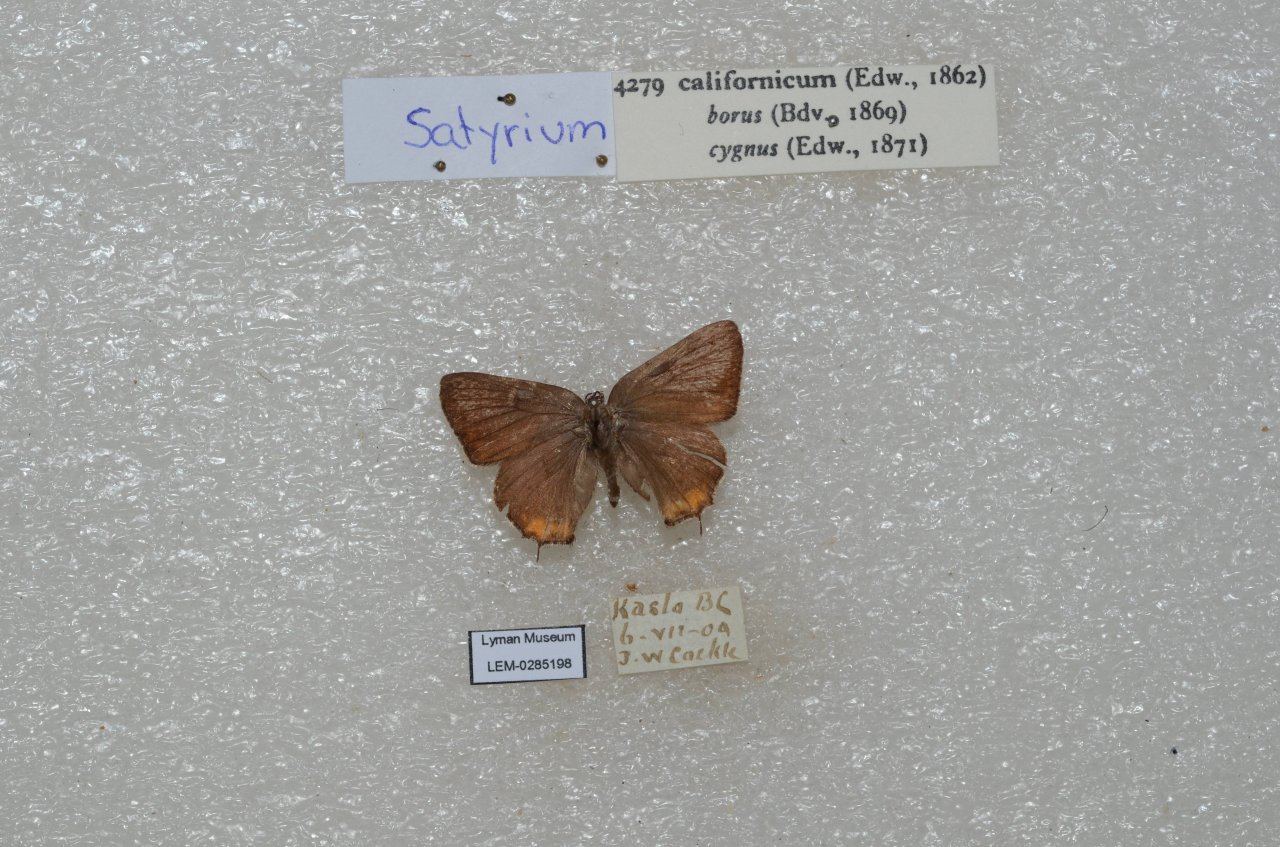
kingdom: Animalia
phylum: Arthropoda
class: Insecta
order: Lepidoptera
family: Lycaenidae
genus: Strymon
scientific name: Strymon acadica
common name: California Hairstreak
